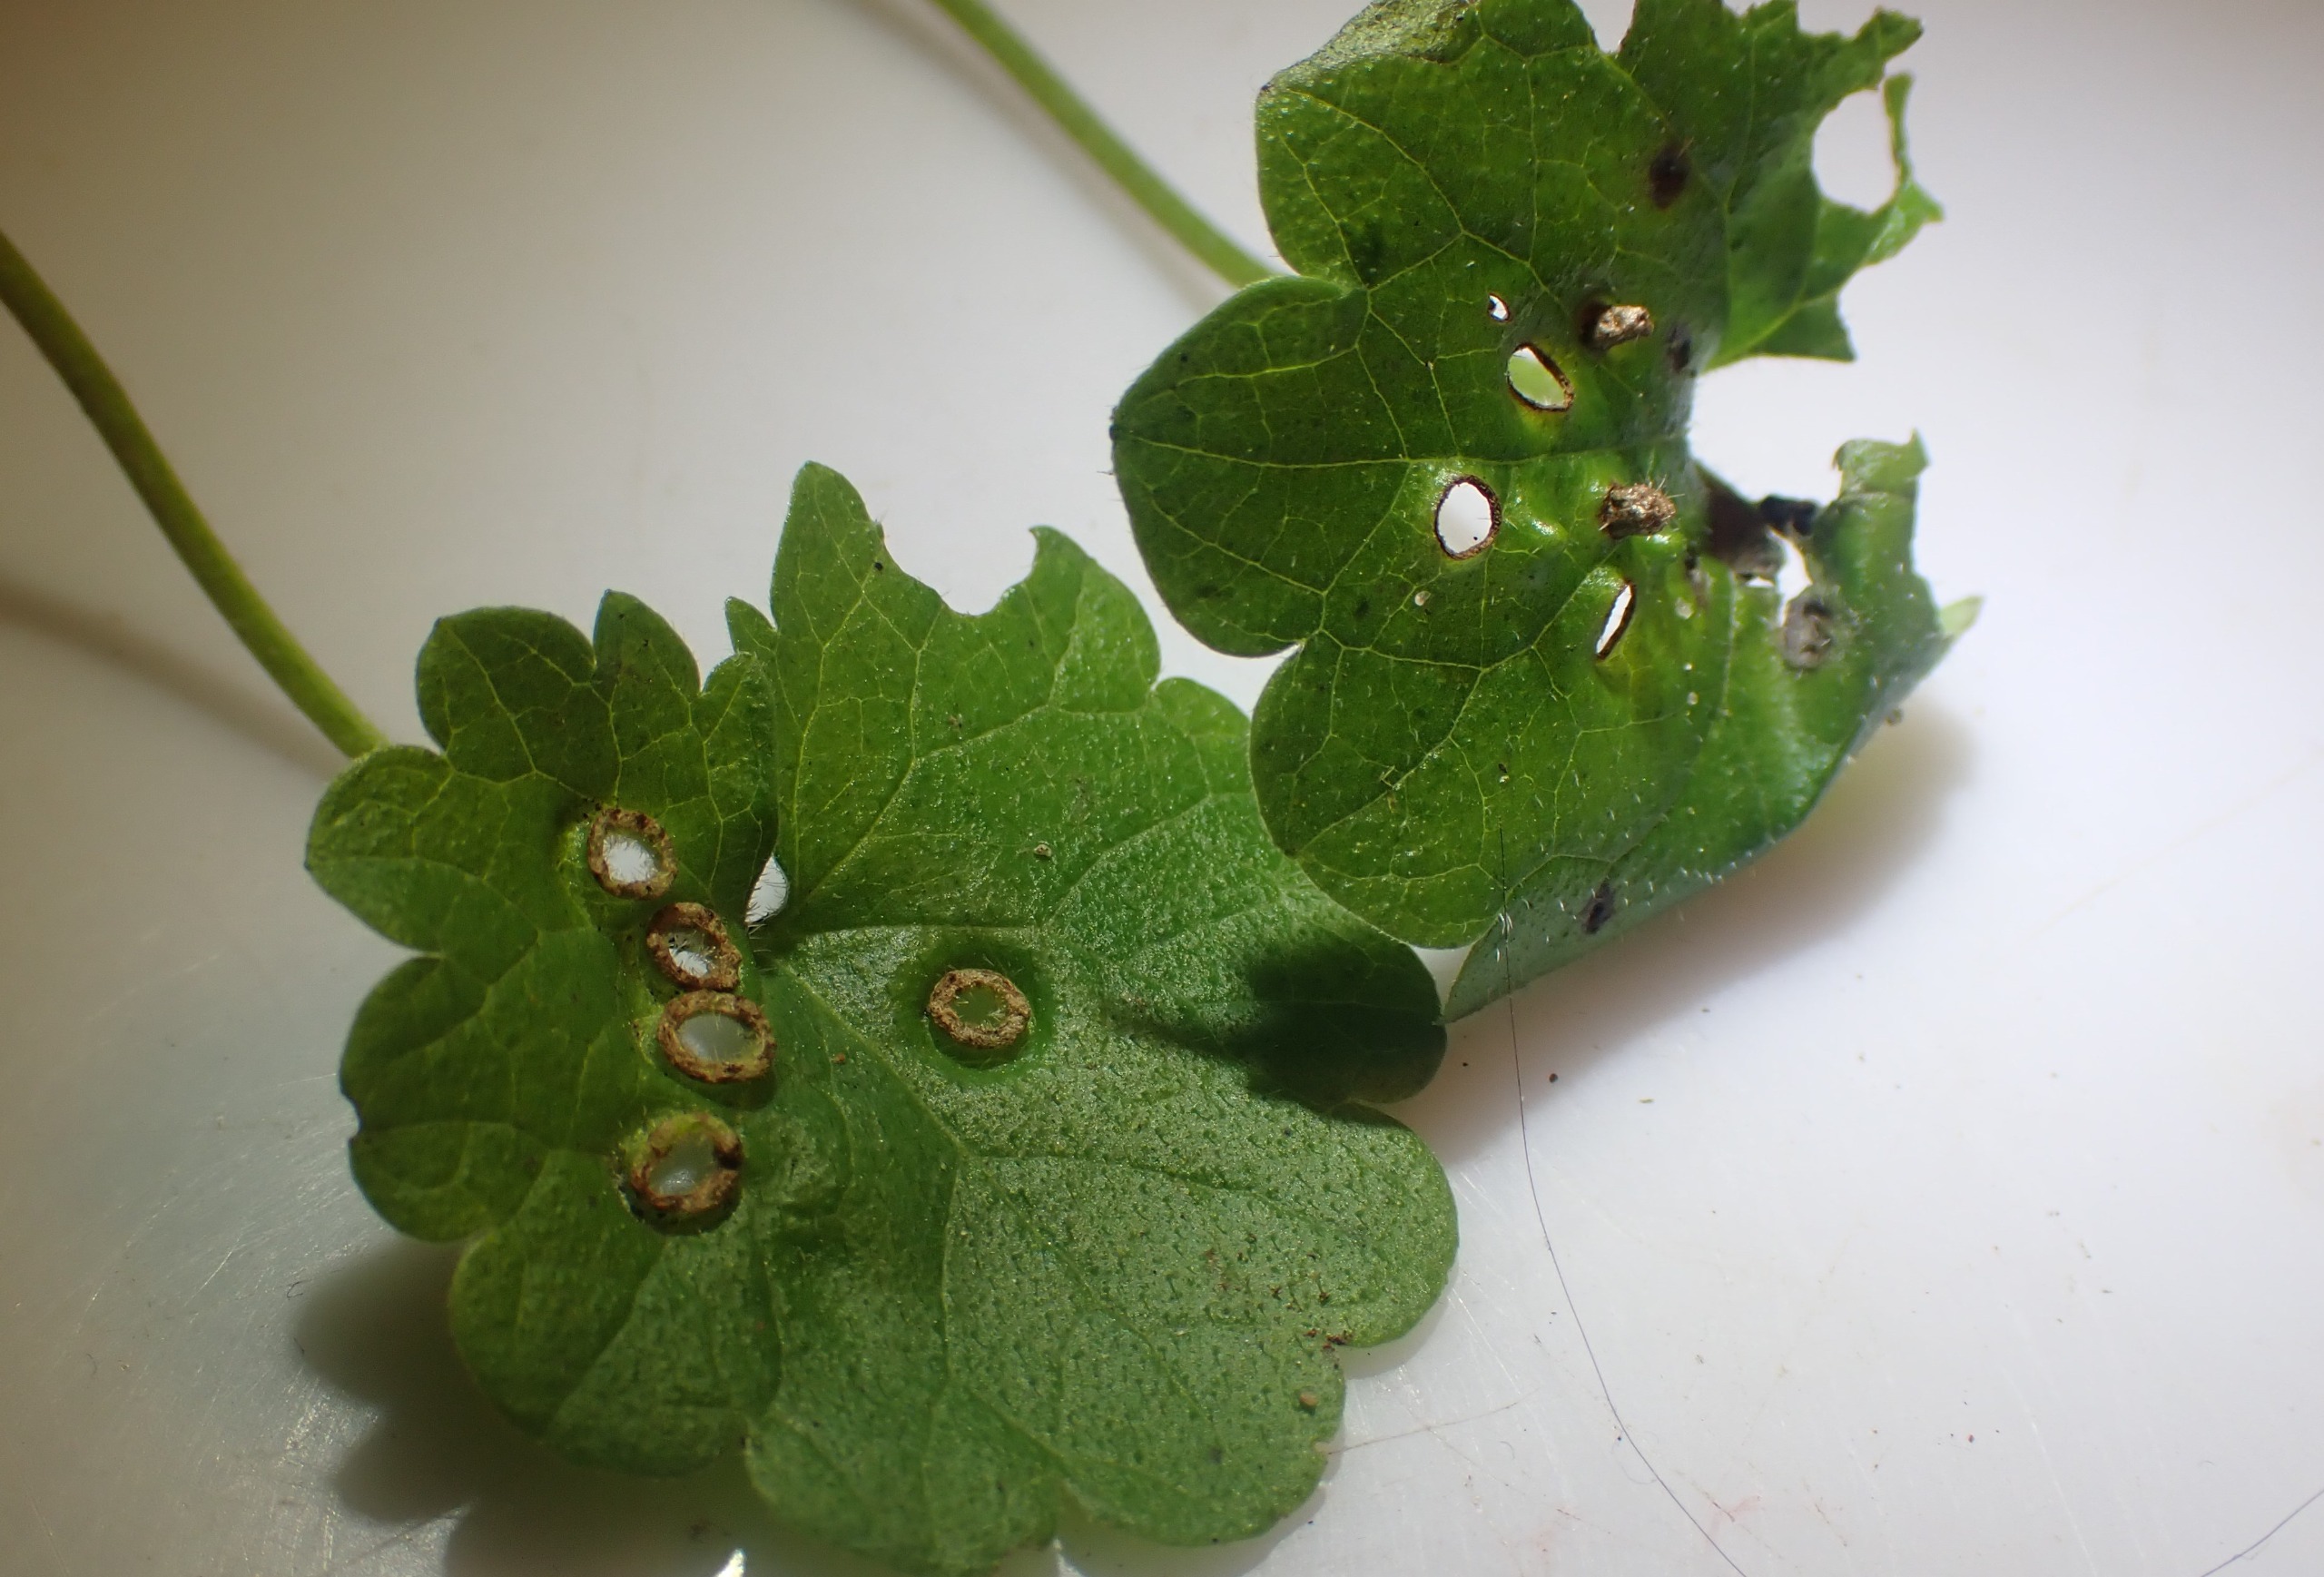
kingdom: Animalia
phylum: Arthropoda
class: Insecta
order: Diptera
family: Cecidomyiidae
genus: Rondaniola
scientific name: Rondaniola bursaria
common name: Hattifnatgalmyg
